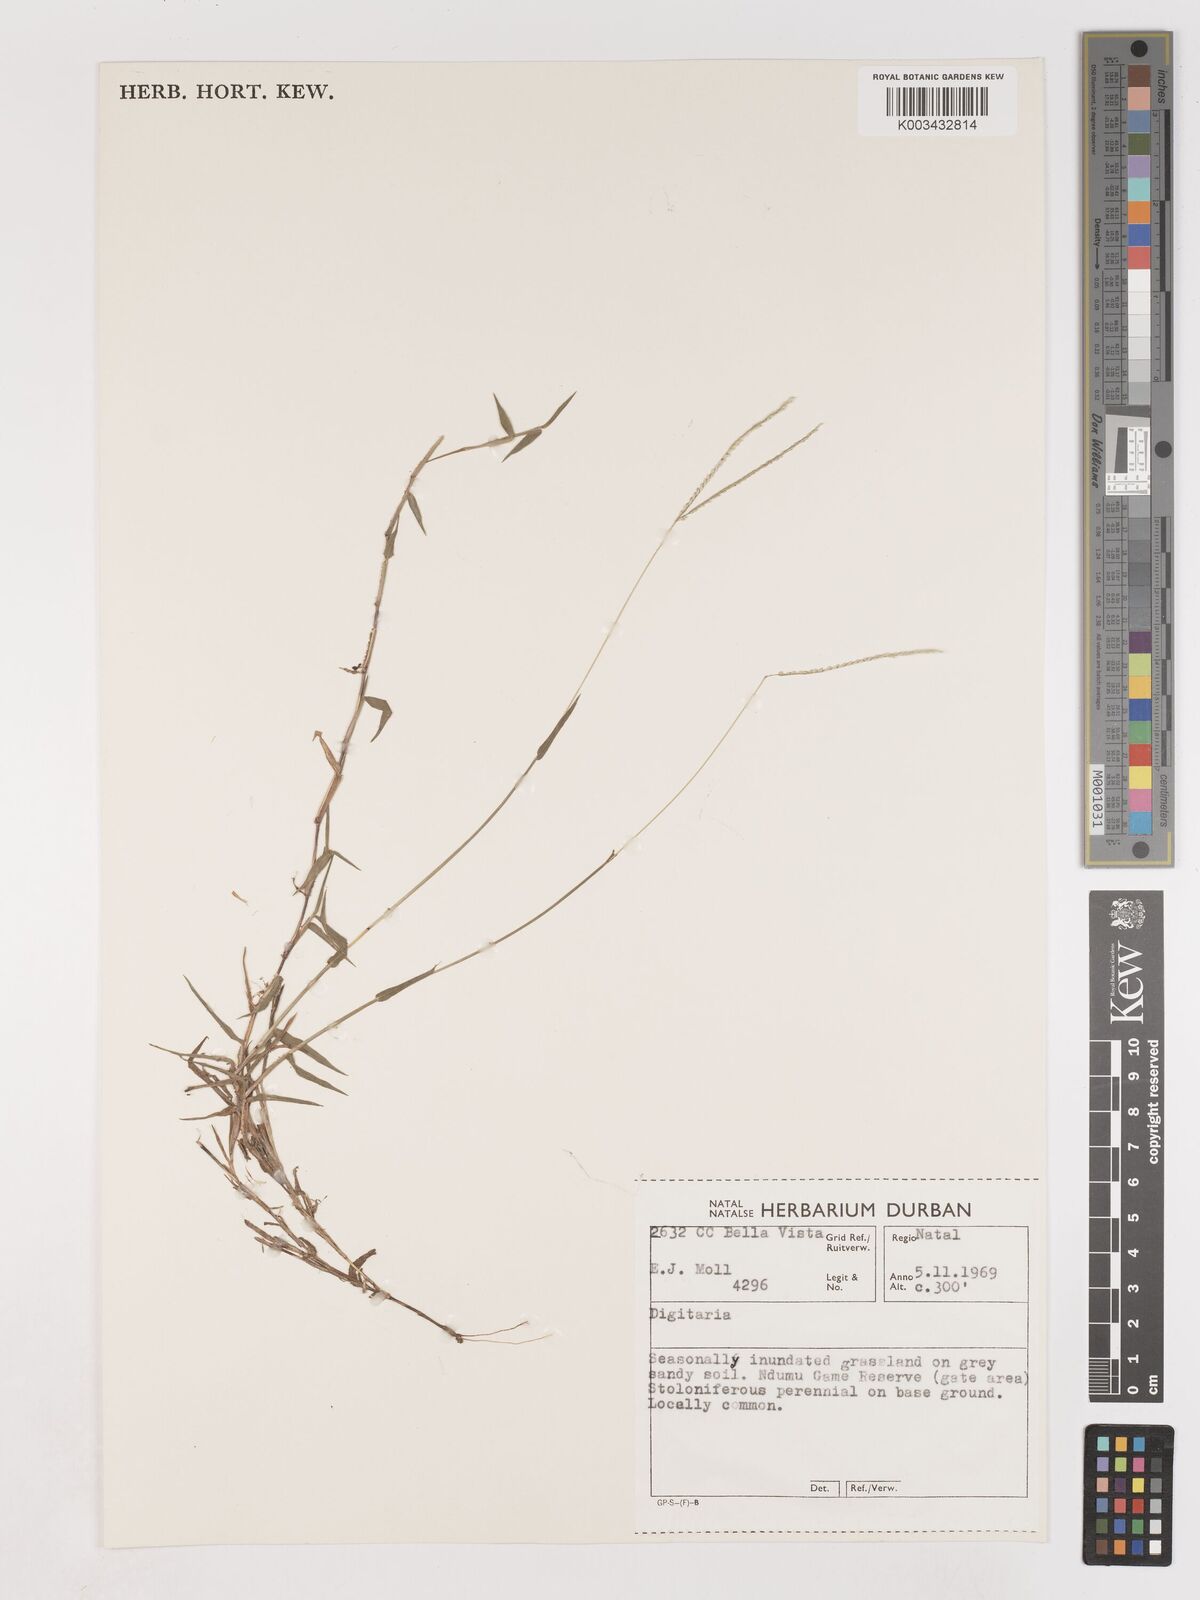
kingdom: Plantae
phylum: Tracheophyta
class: Liliopsida
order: Poales
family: Poaceae
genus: Digitaria
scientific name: Digitaria longiflora
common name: Wire crabgrass
